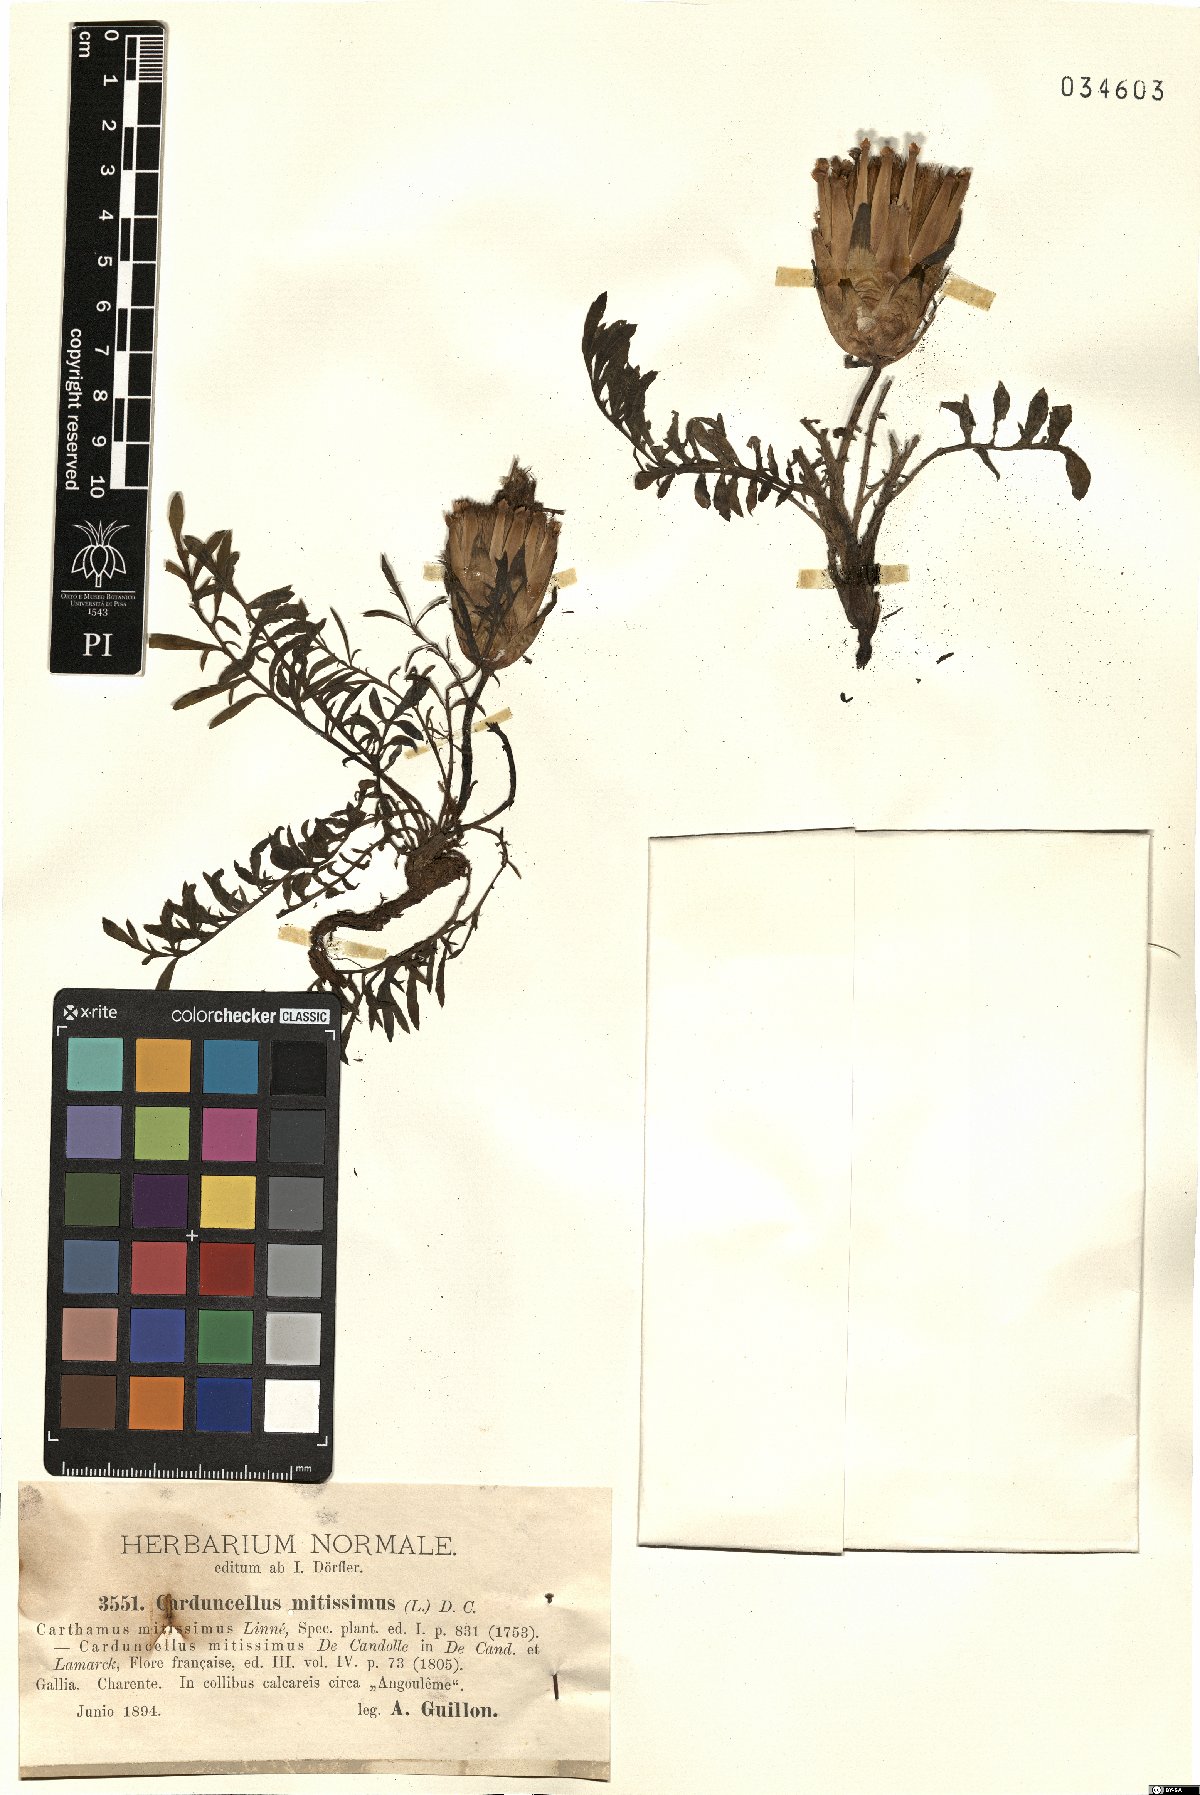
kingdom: Plantae
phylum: Tracheophyta
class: Magnoliopsida
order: Asterales
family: Asteraceae
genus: Carduncellus
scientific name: Carduncellus mitissimus
